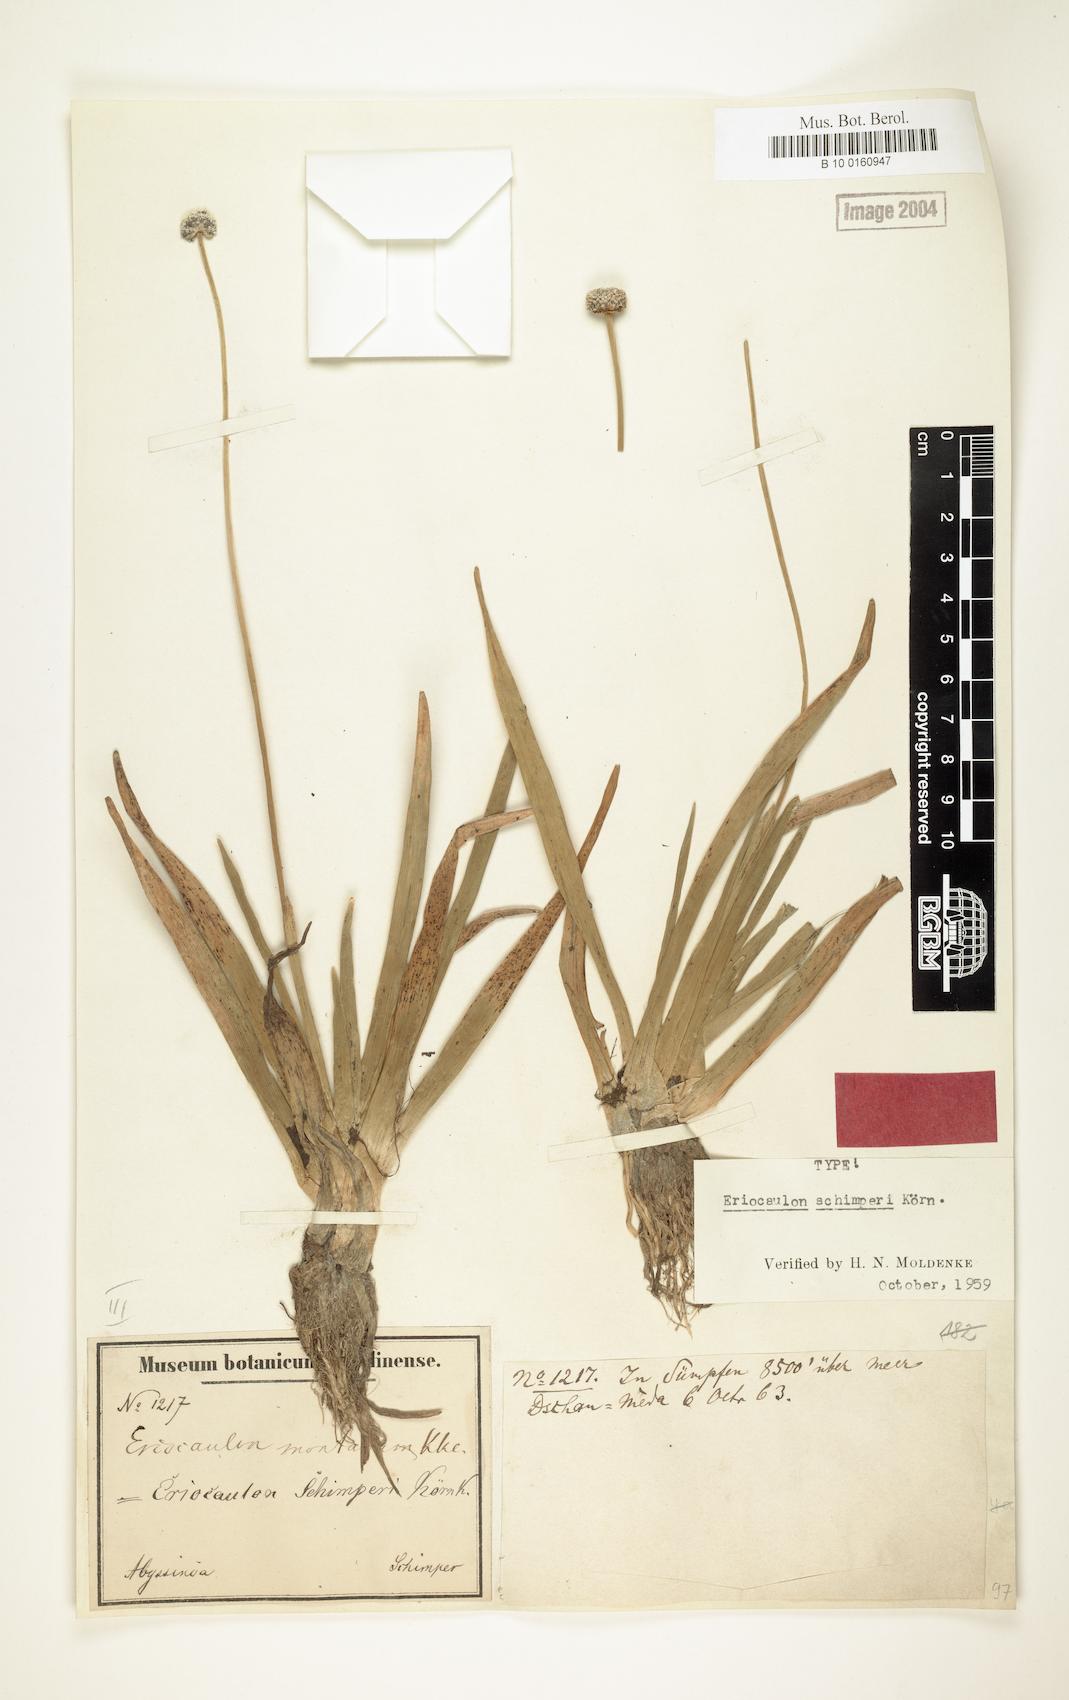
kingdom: Plantae
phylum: Tracheophyta
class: Liliopsida
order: Poales
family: Eriocaulaceae
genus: Eriocaulon
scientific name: Eriocaulon schimperi
